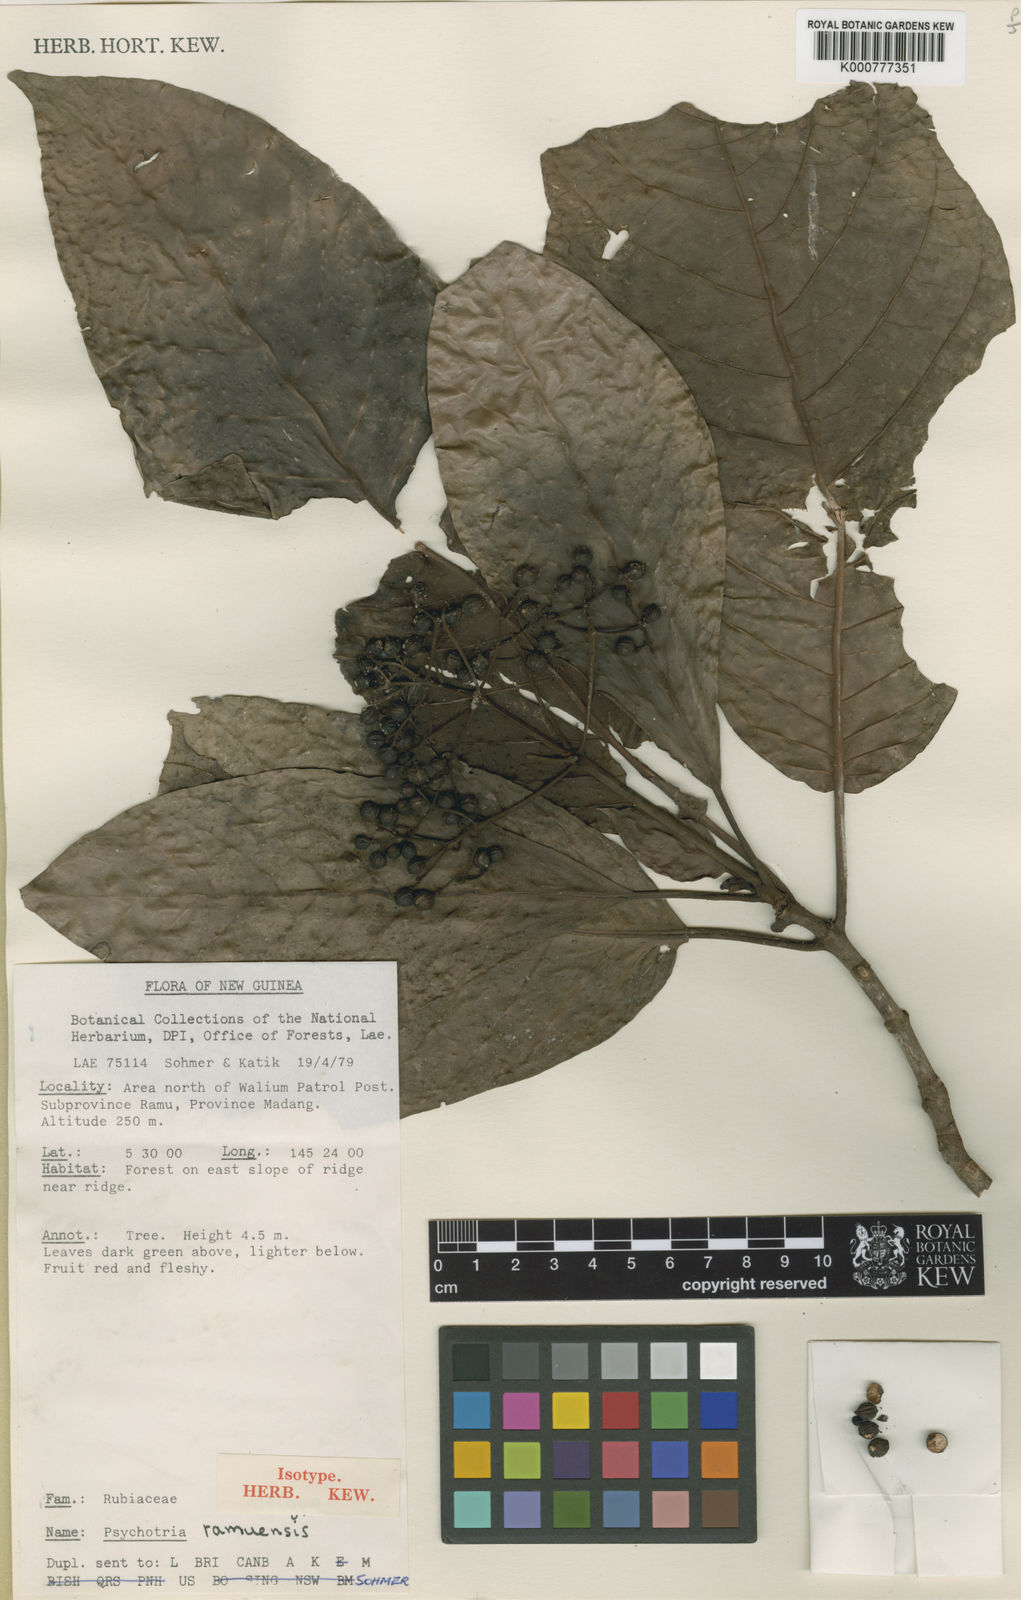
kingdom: Plantae
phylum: Tracheophyta
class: Magnoliopsida
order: Gentianales
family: Rubiaceae
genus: Psychotria
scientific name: Psychotria ramuensis
